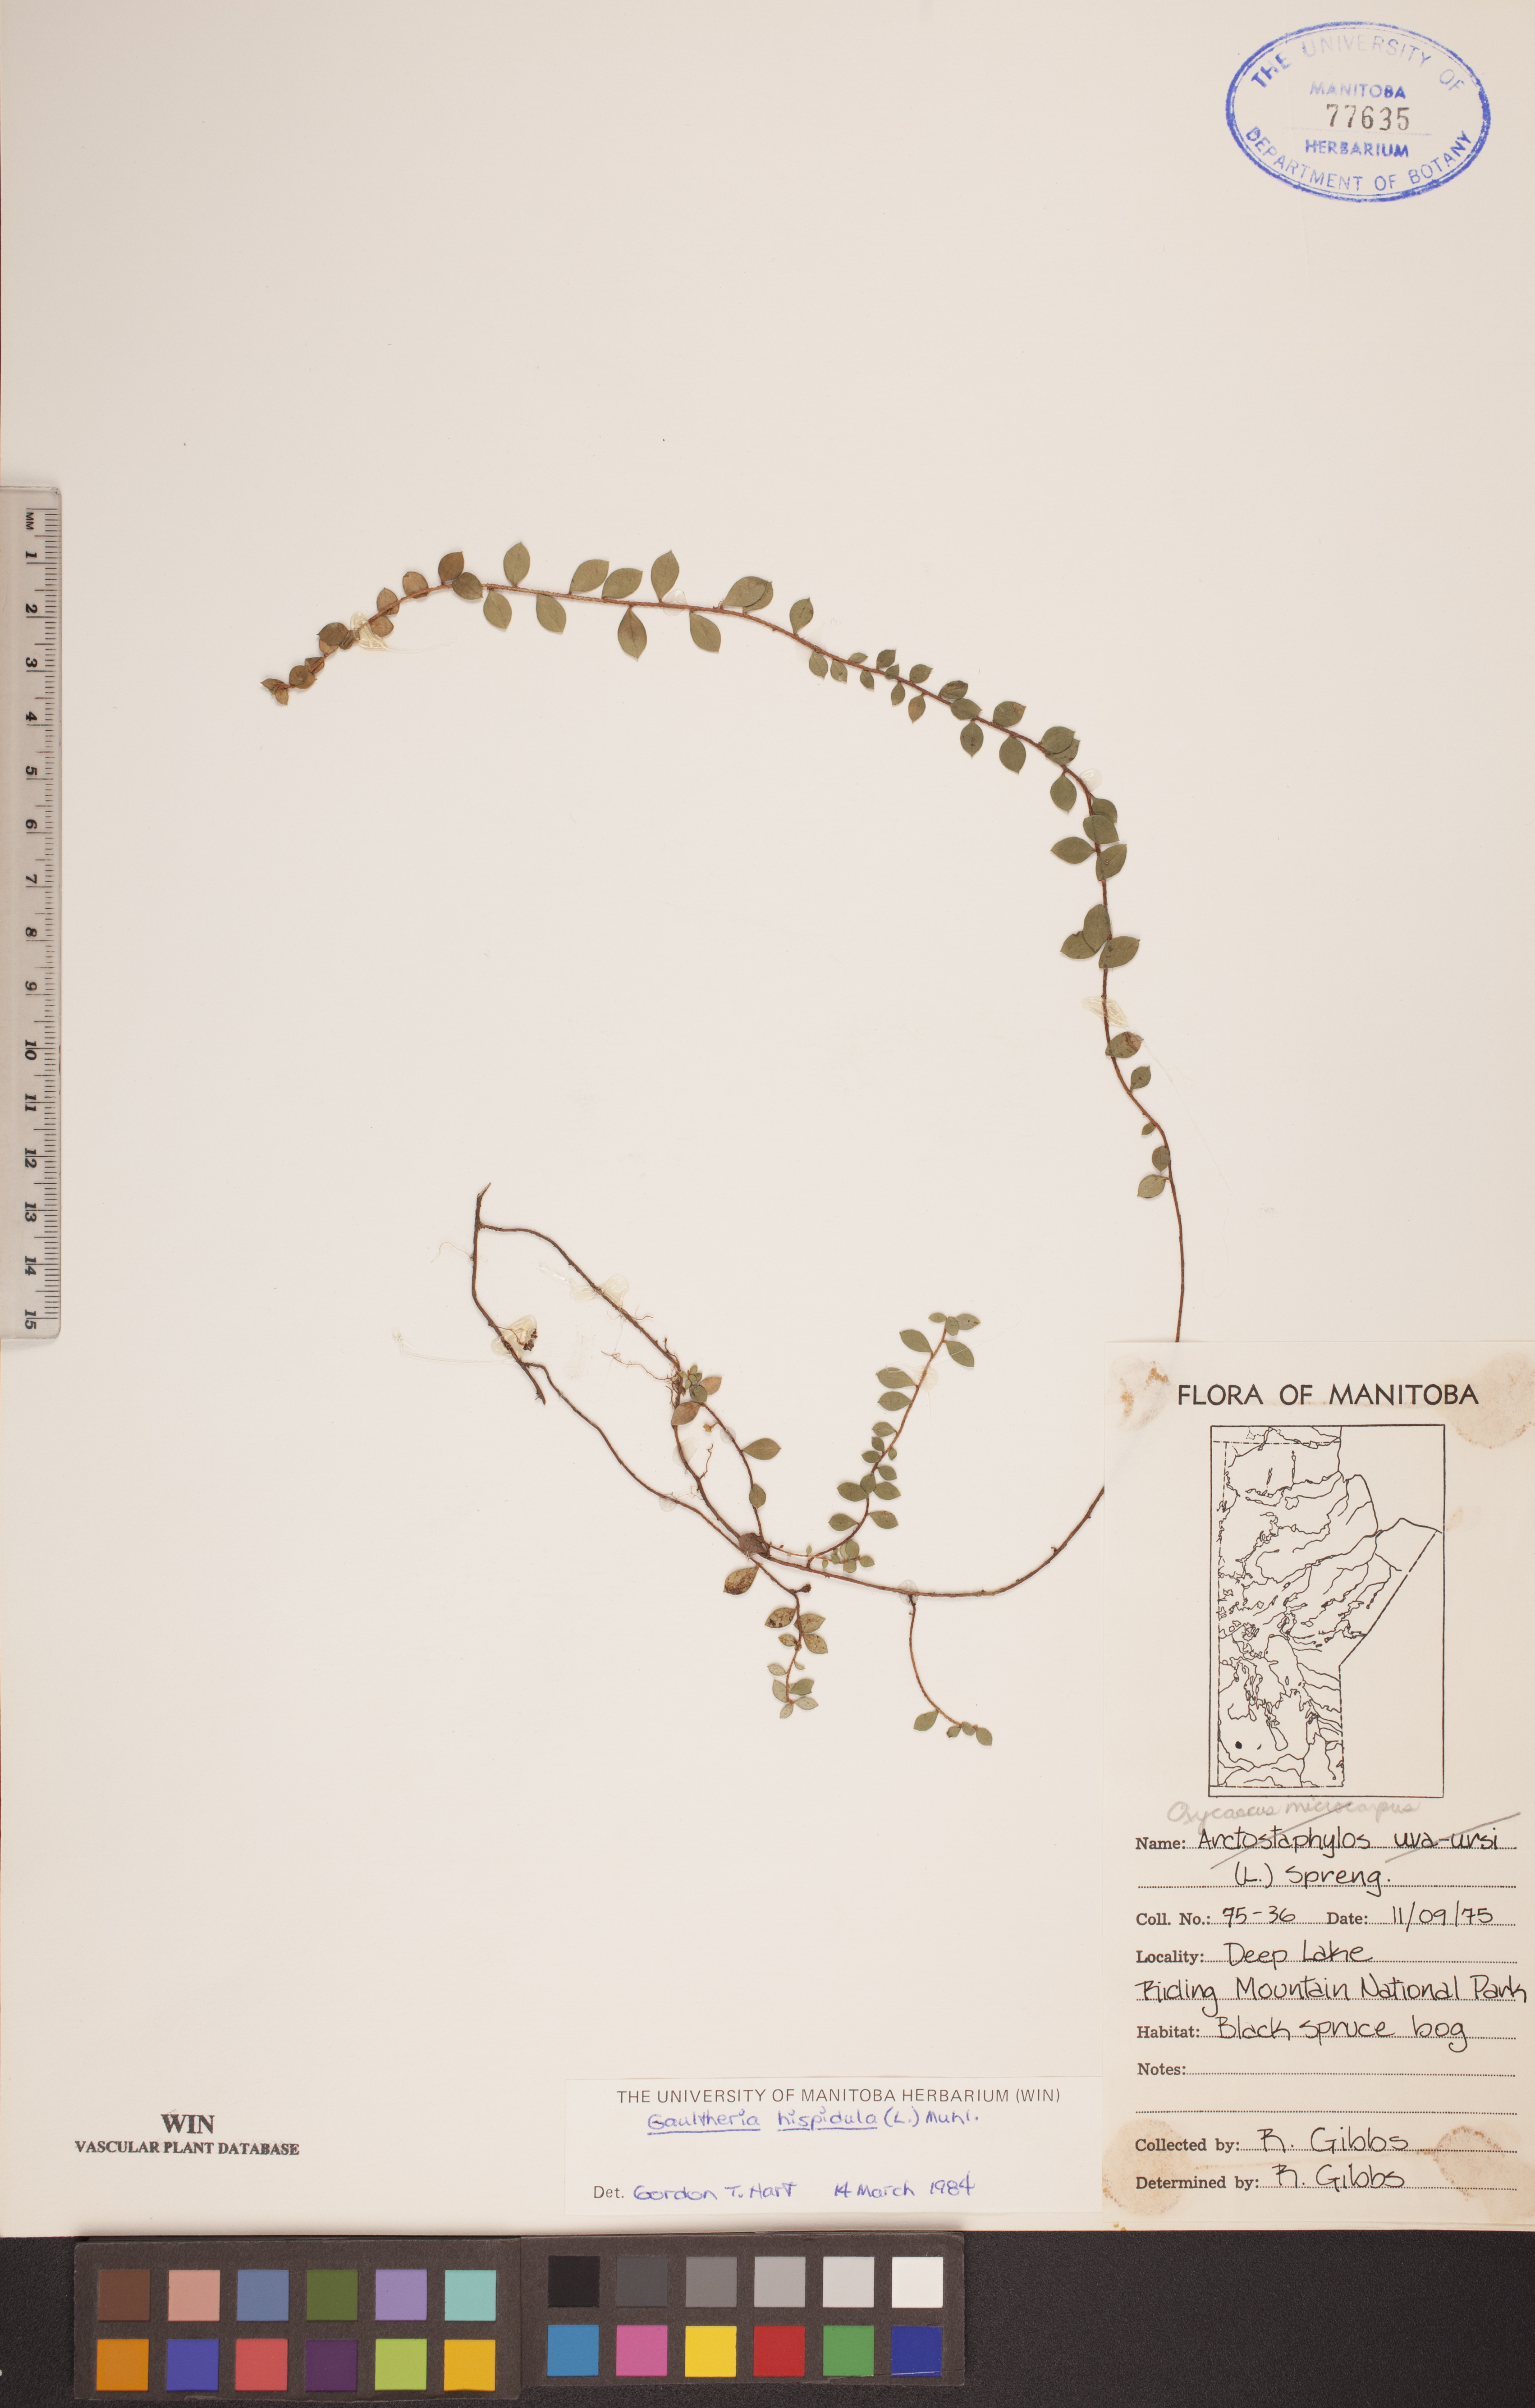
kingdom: Plantae
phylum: Tracheophyta
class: Magnoliopsida
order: Ericales
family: Ericaceae
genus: Gaultheria
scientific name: Gaultheria hispidula
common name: Cancer wintergreen
